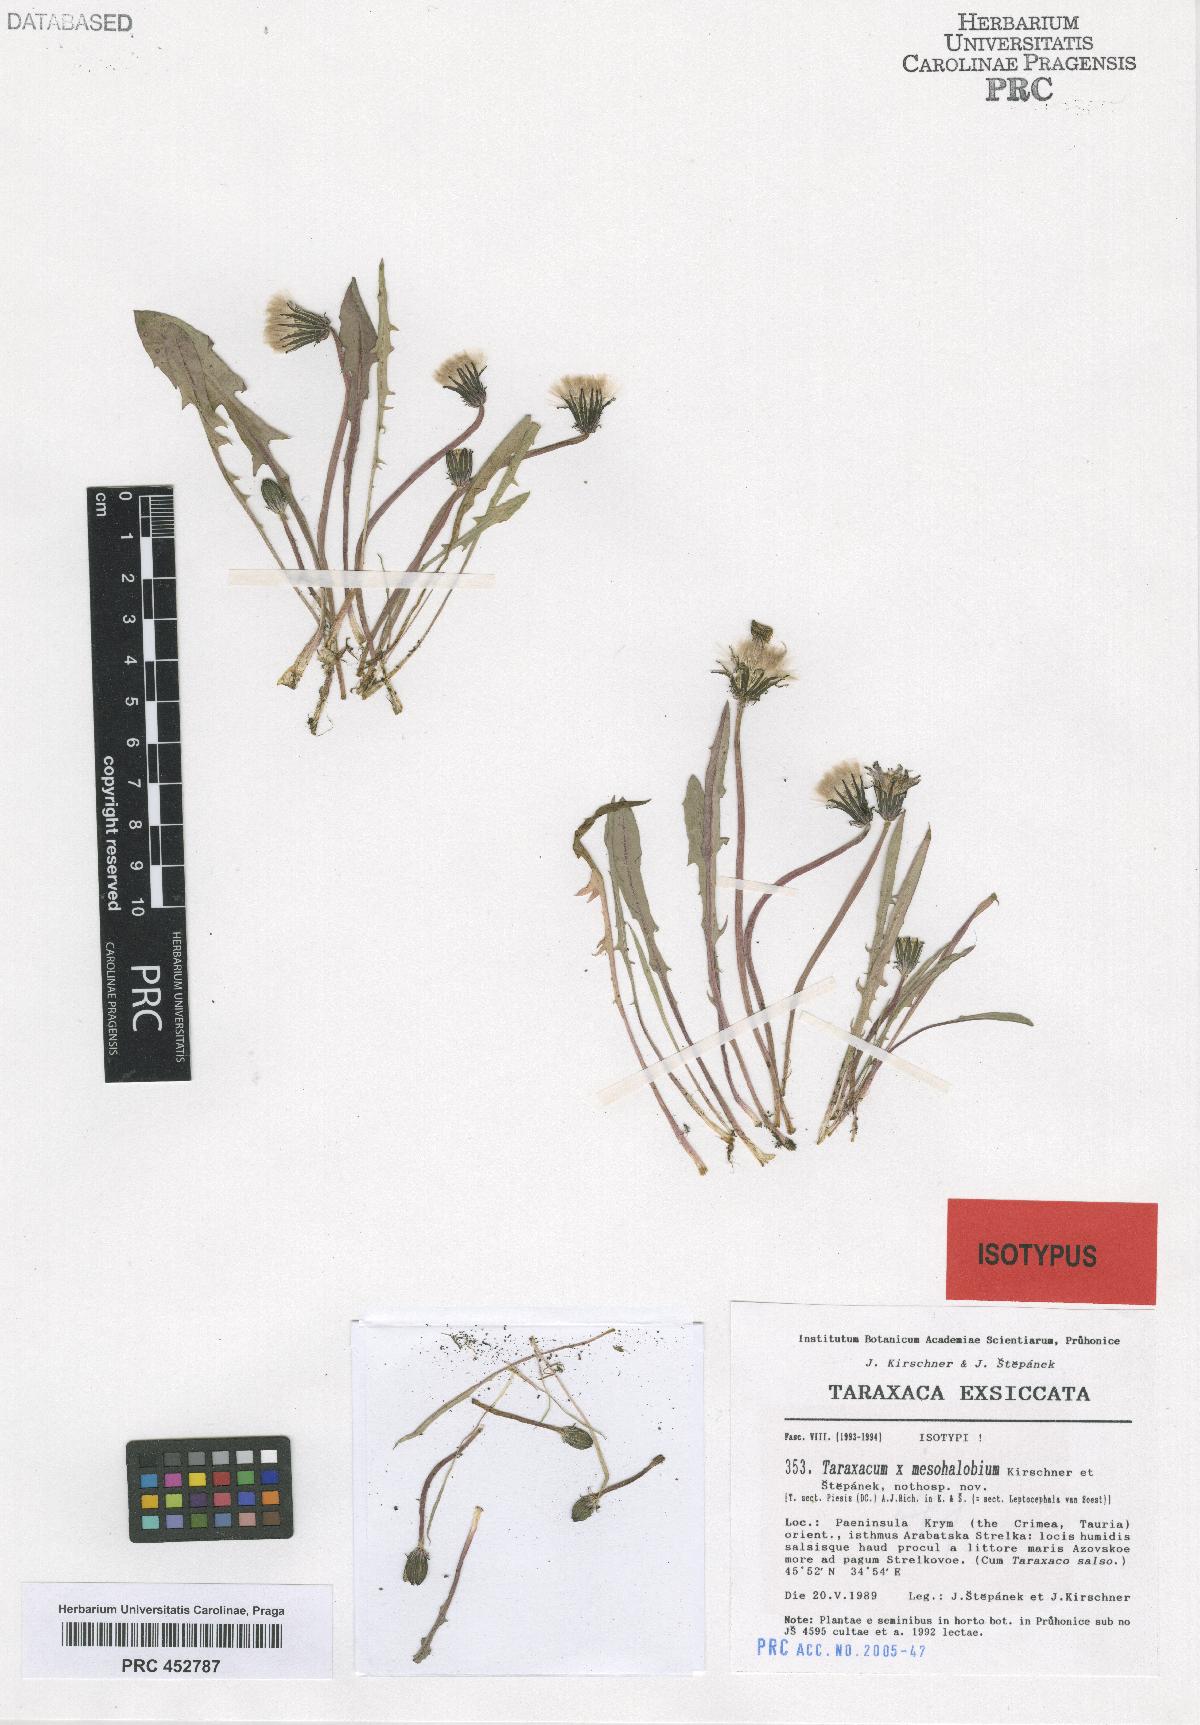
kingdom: Plantae
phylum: Tracheophyta
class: Magnoliopsida
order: Asterales
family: Asteraceae
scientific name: Asteraceae
